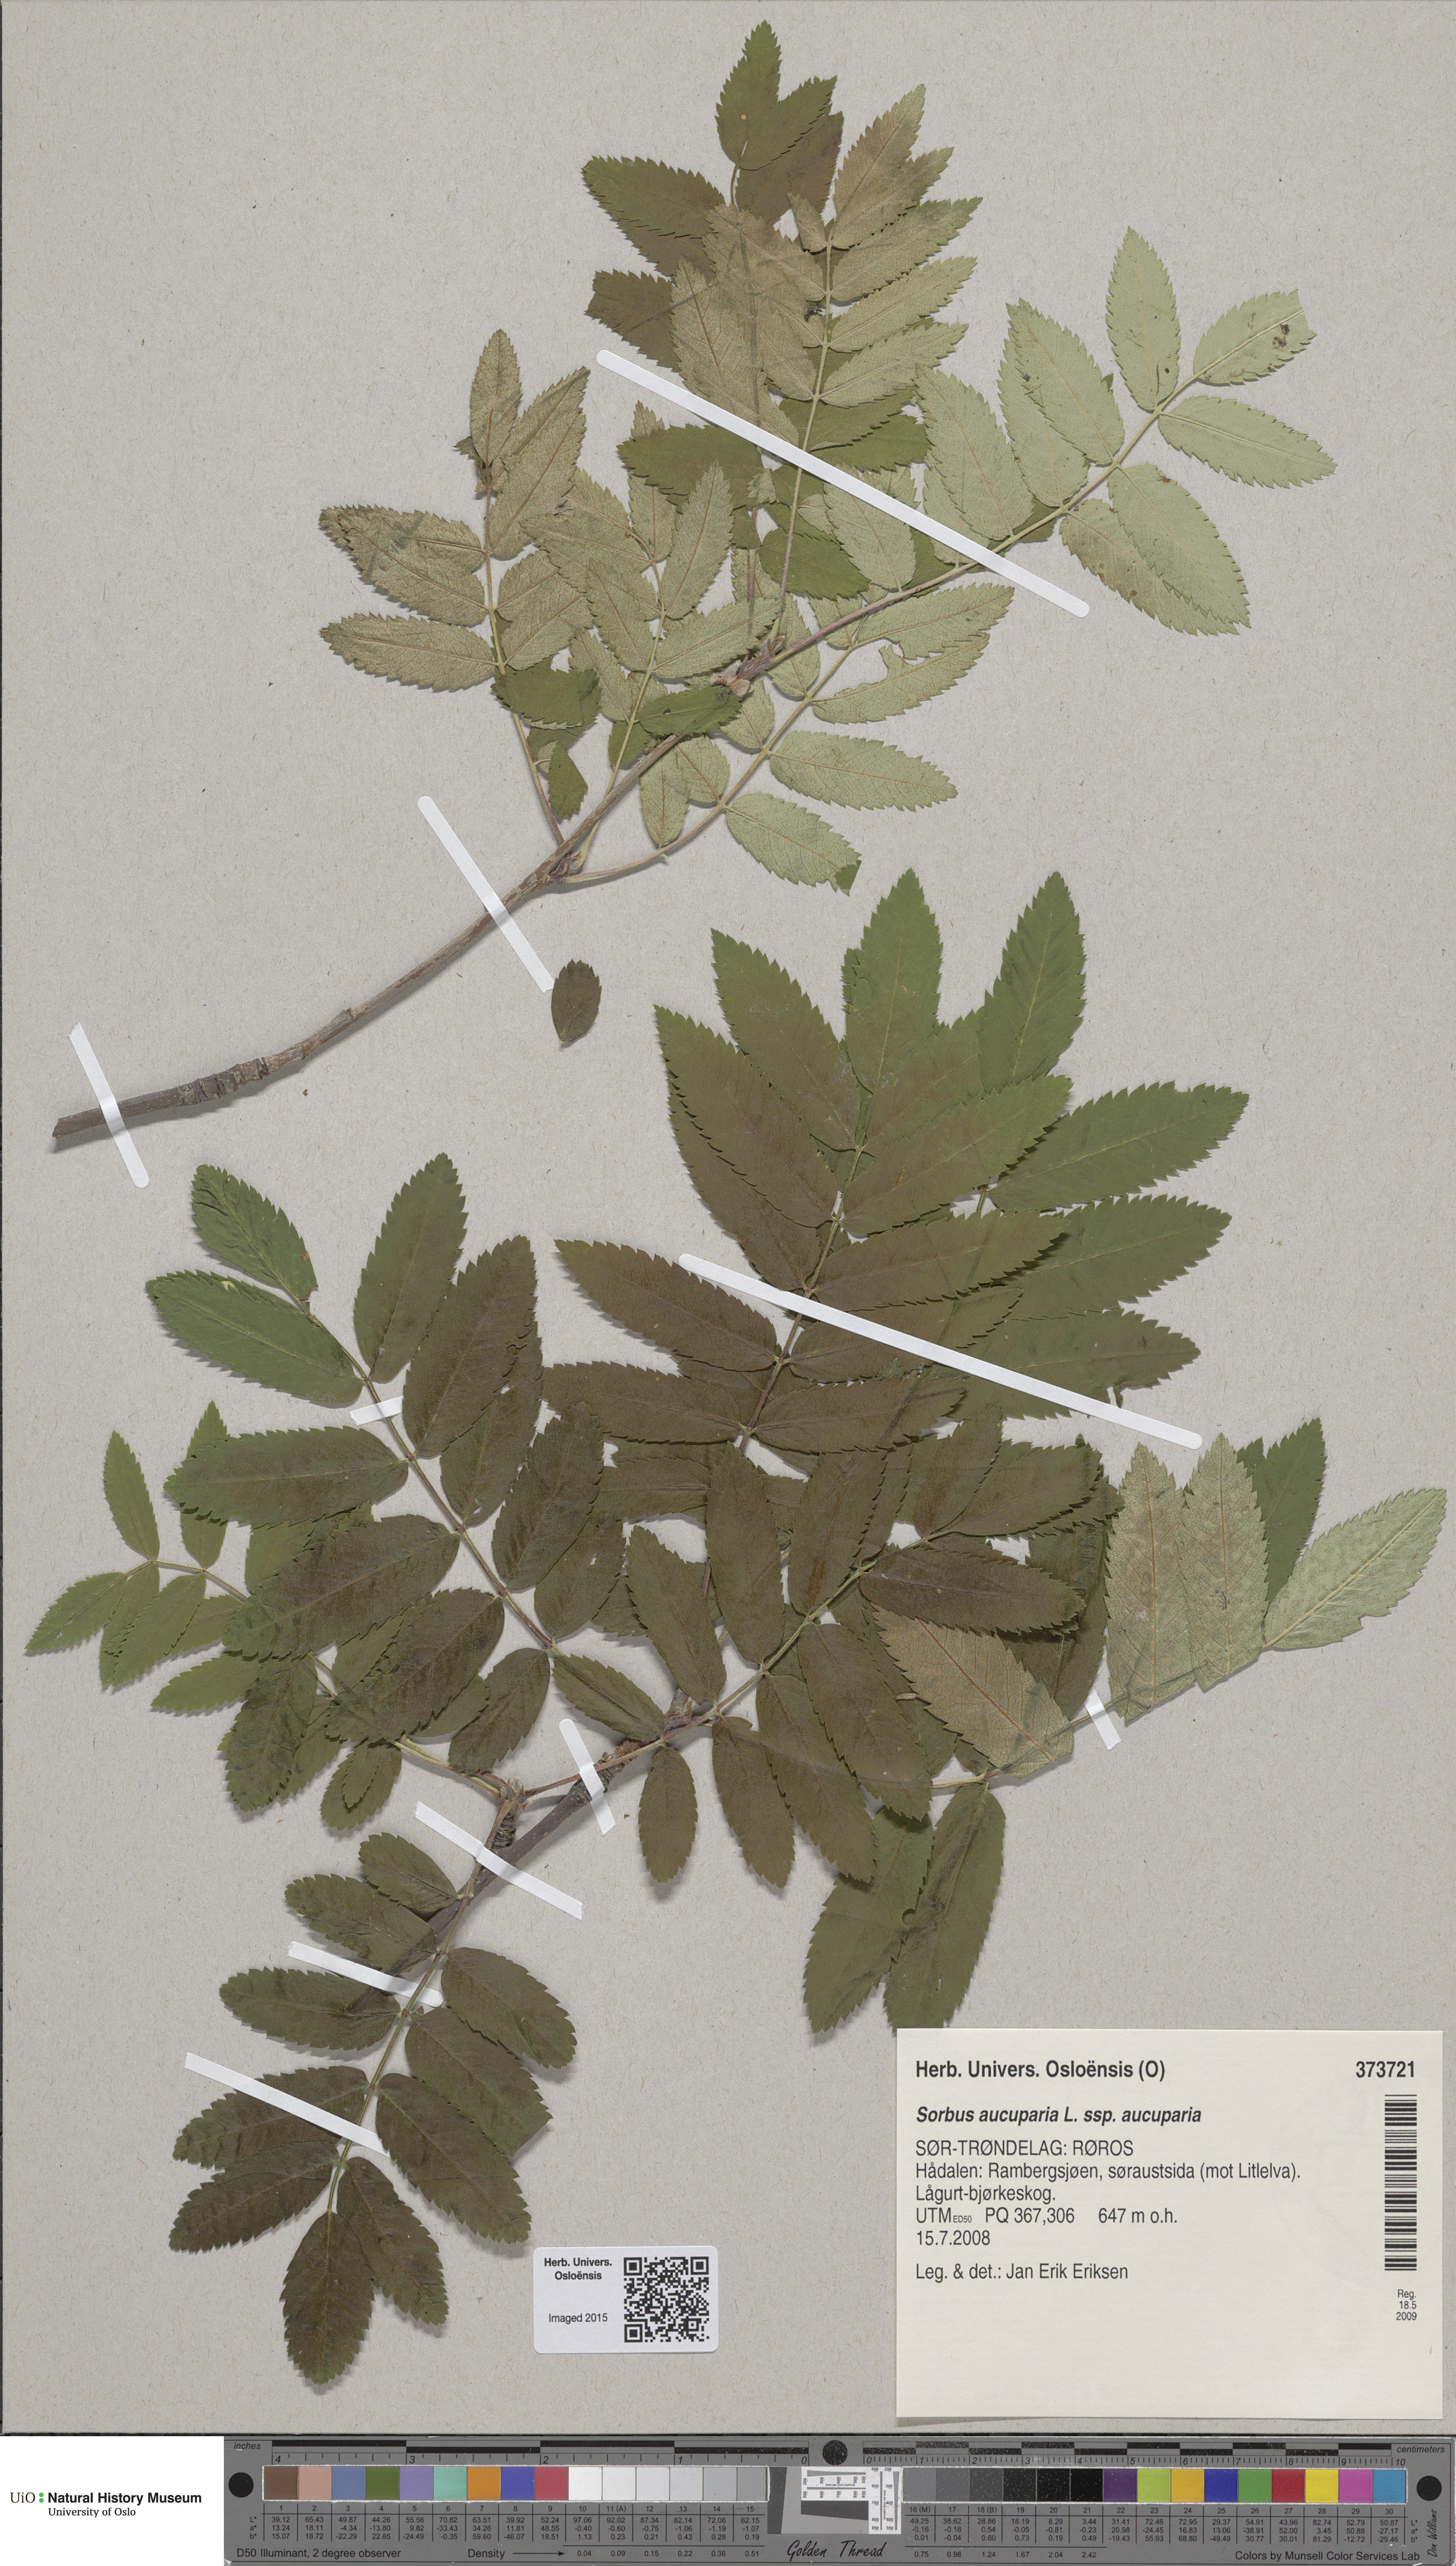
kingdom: Plantae
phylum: Tracheophyta
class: Magnoliopsida
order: Rosales
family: Rosaceae
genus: Sorbus
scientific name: Sorbus aucuparia
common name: Rowan
